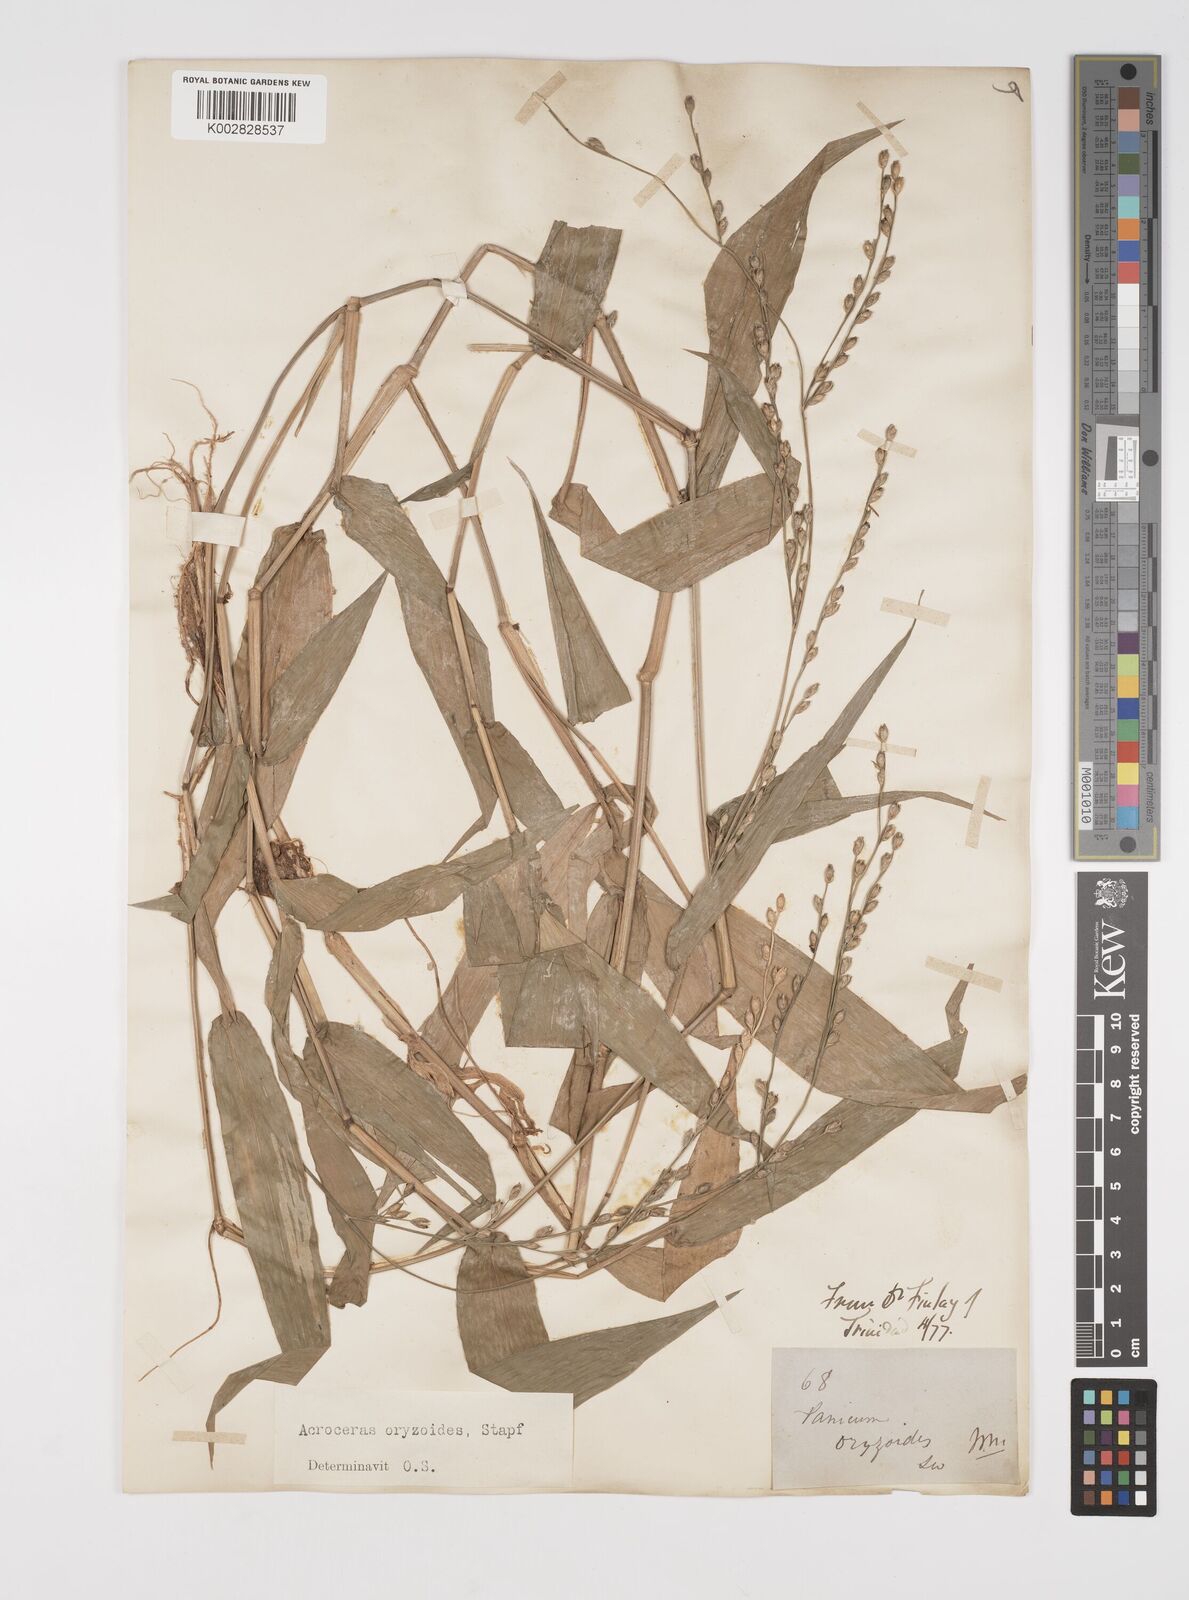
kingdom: Plantae
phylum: Tracheophyta
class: Liliopsida
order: Poales
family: Poaceae
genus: Acroceras
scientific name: Acroceras zizanioides
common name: Oat grass
